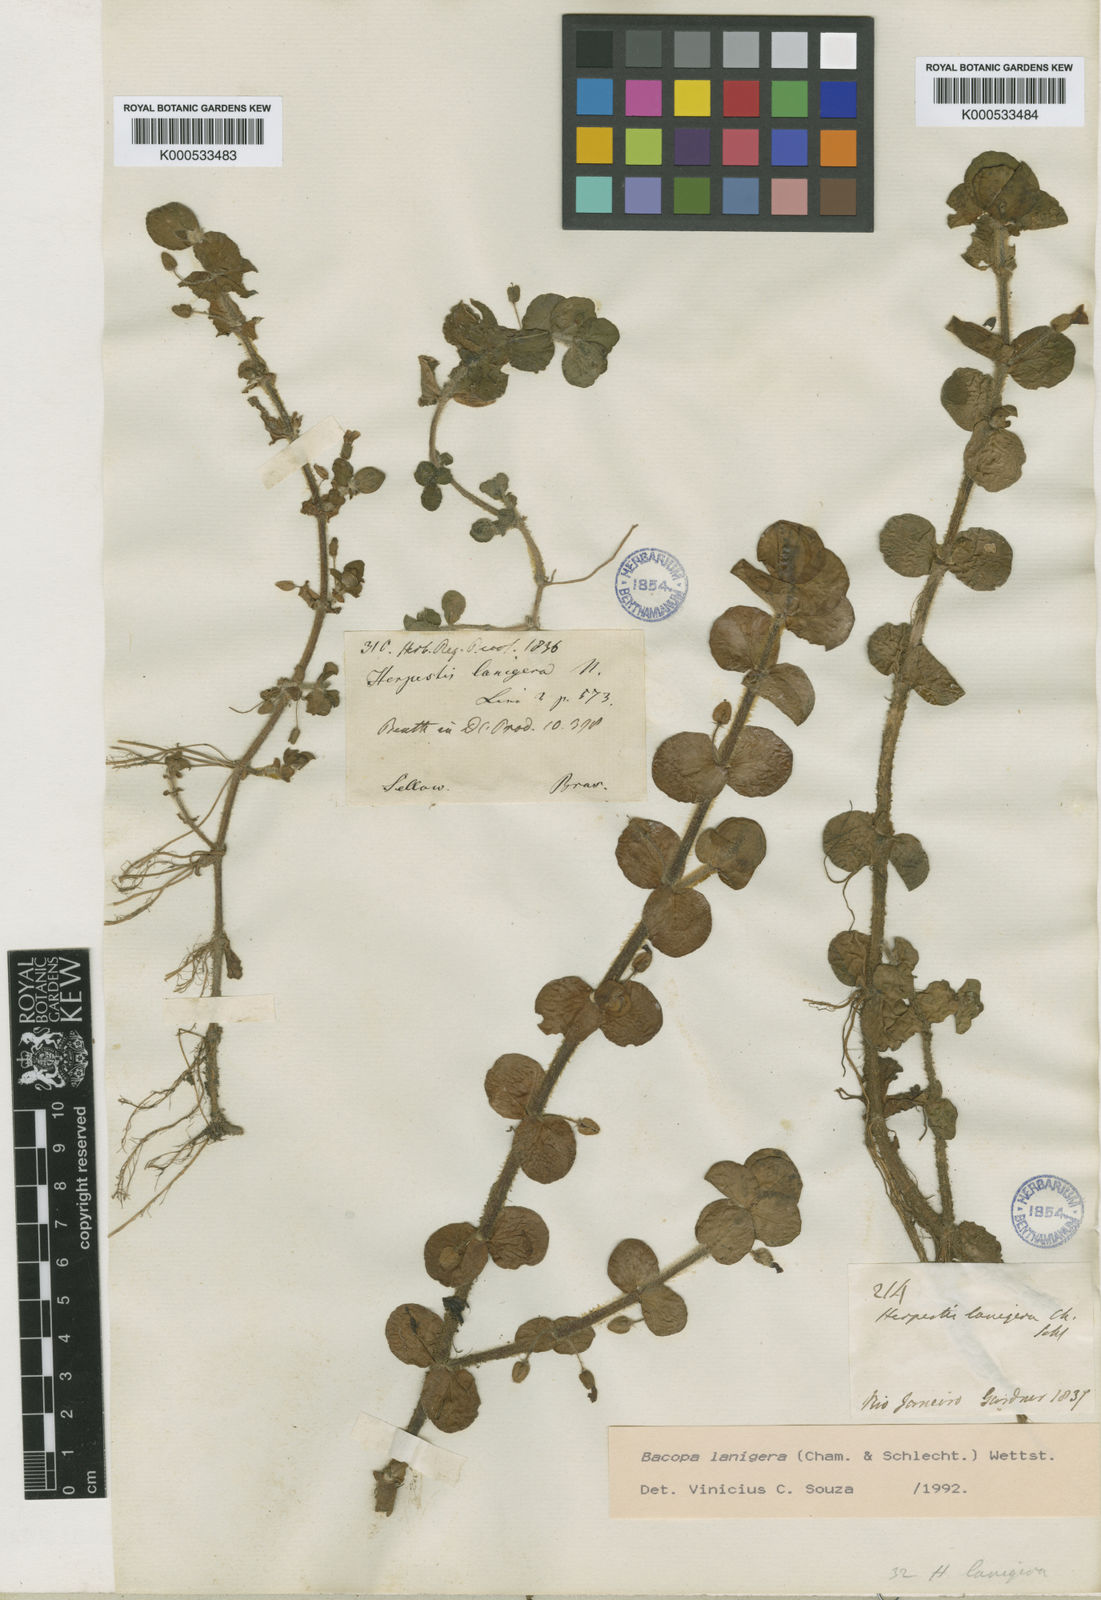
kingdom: Plantae
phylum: Tracheophyta
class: Magnoliopsida
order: Lamiales
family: Plantaginaceae
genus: Bacopa
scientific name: Bacopa lanigera
